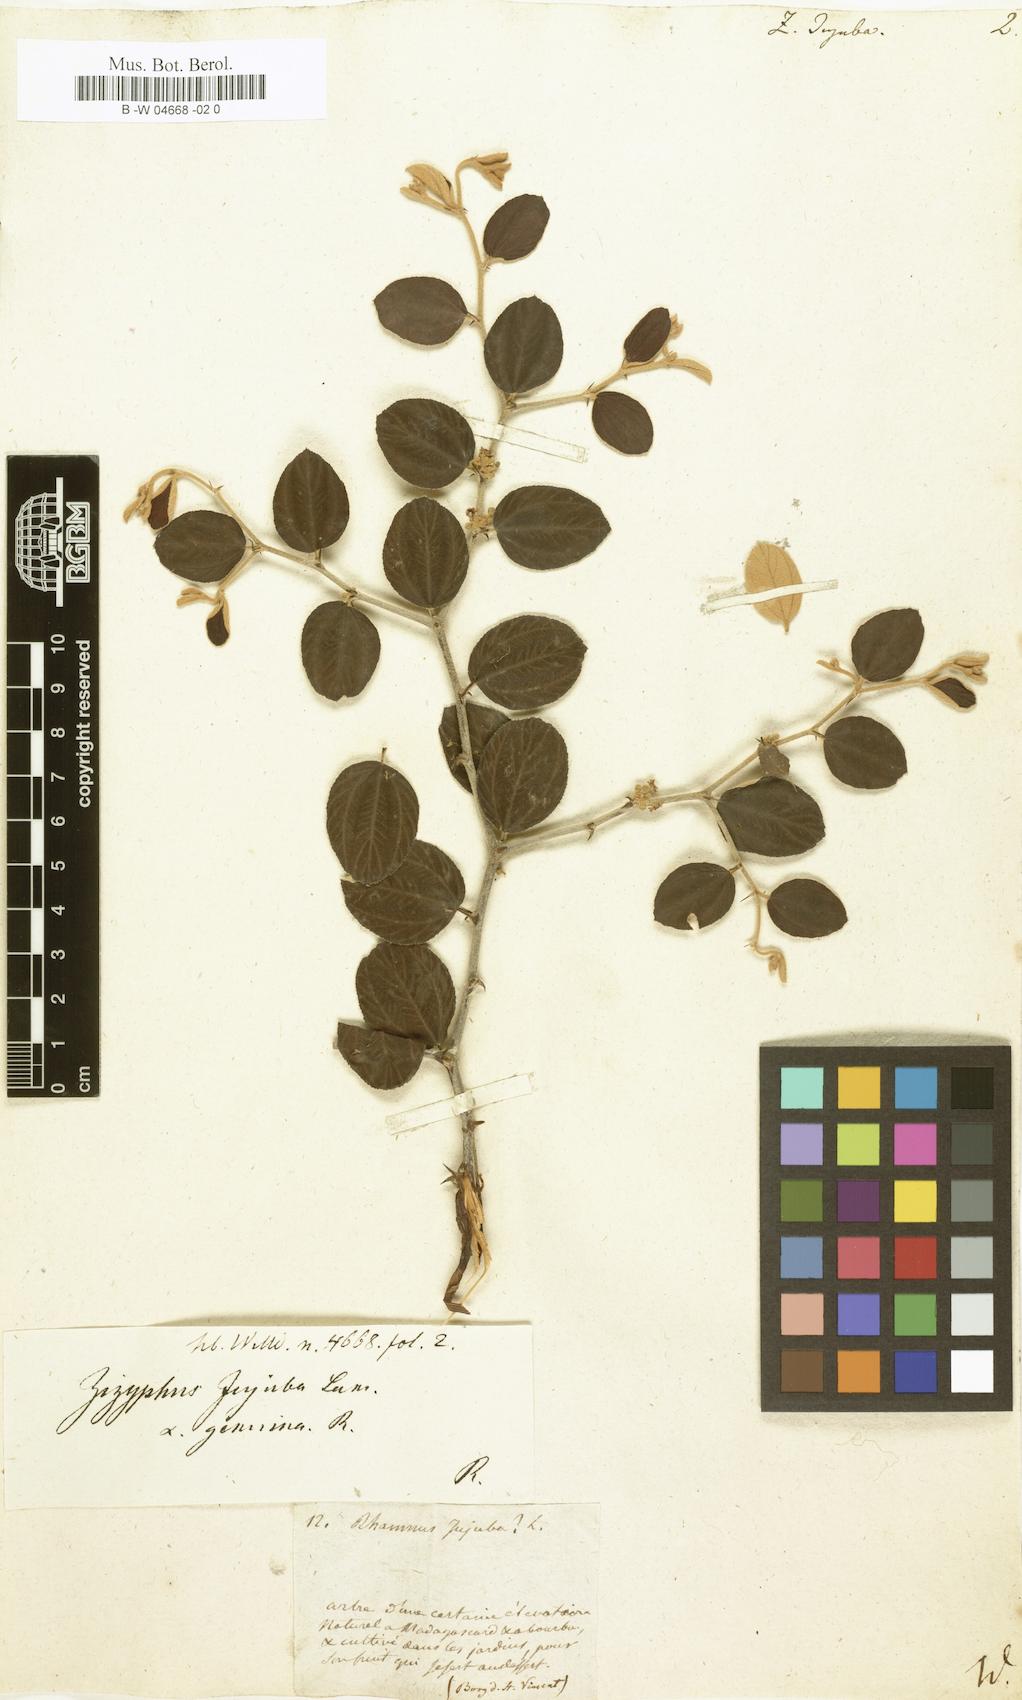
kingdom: Plantae
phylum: Tracheophyta
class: Magnoliopsida
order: Rosales
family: Rhamnaceae
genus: Ziziphus
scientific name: Ziziphus mauritiana
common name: Indian jujube
